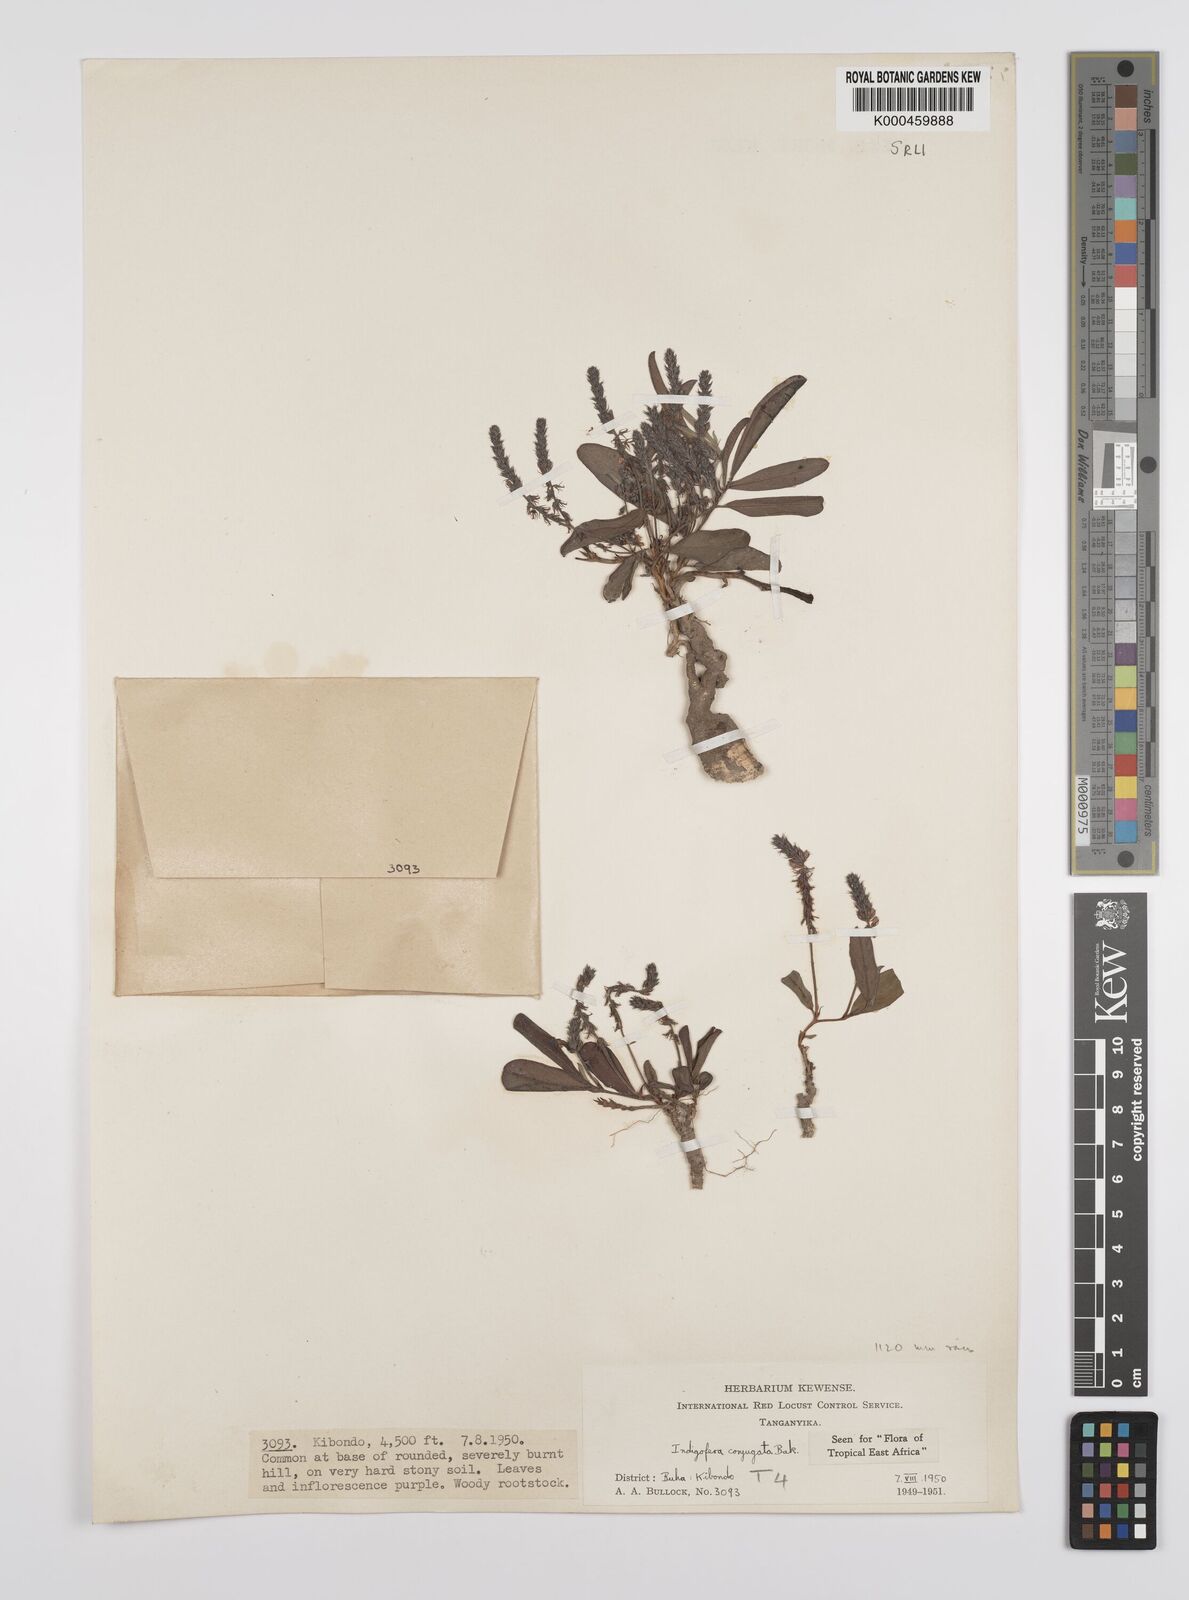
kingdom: Plantae
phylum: Tracheophyta
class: Magnoliopsida
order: Fabales
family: Fabaceae
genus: Indigofera
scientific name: Indigofera conjugata
